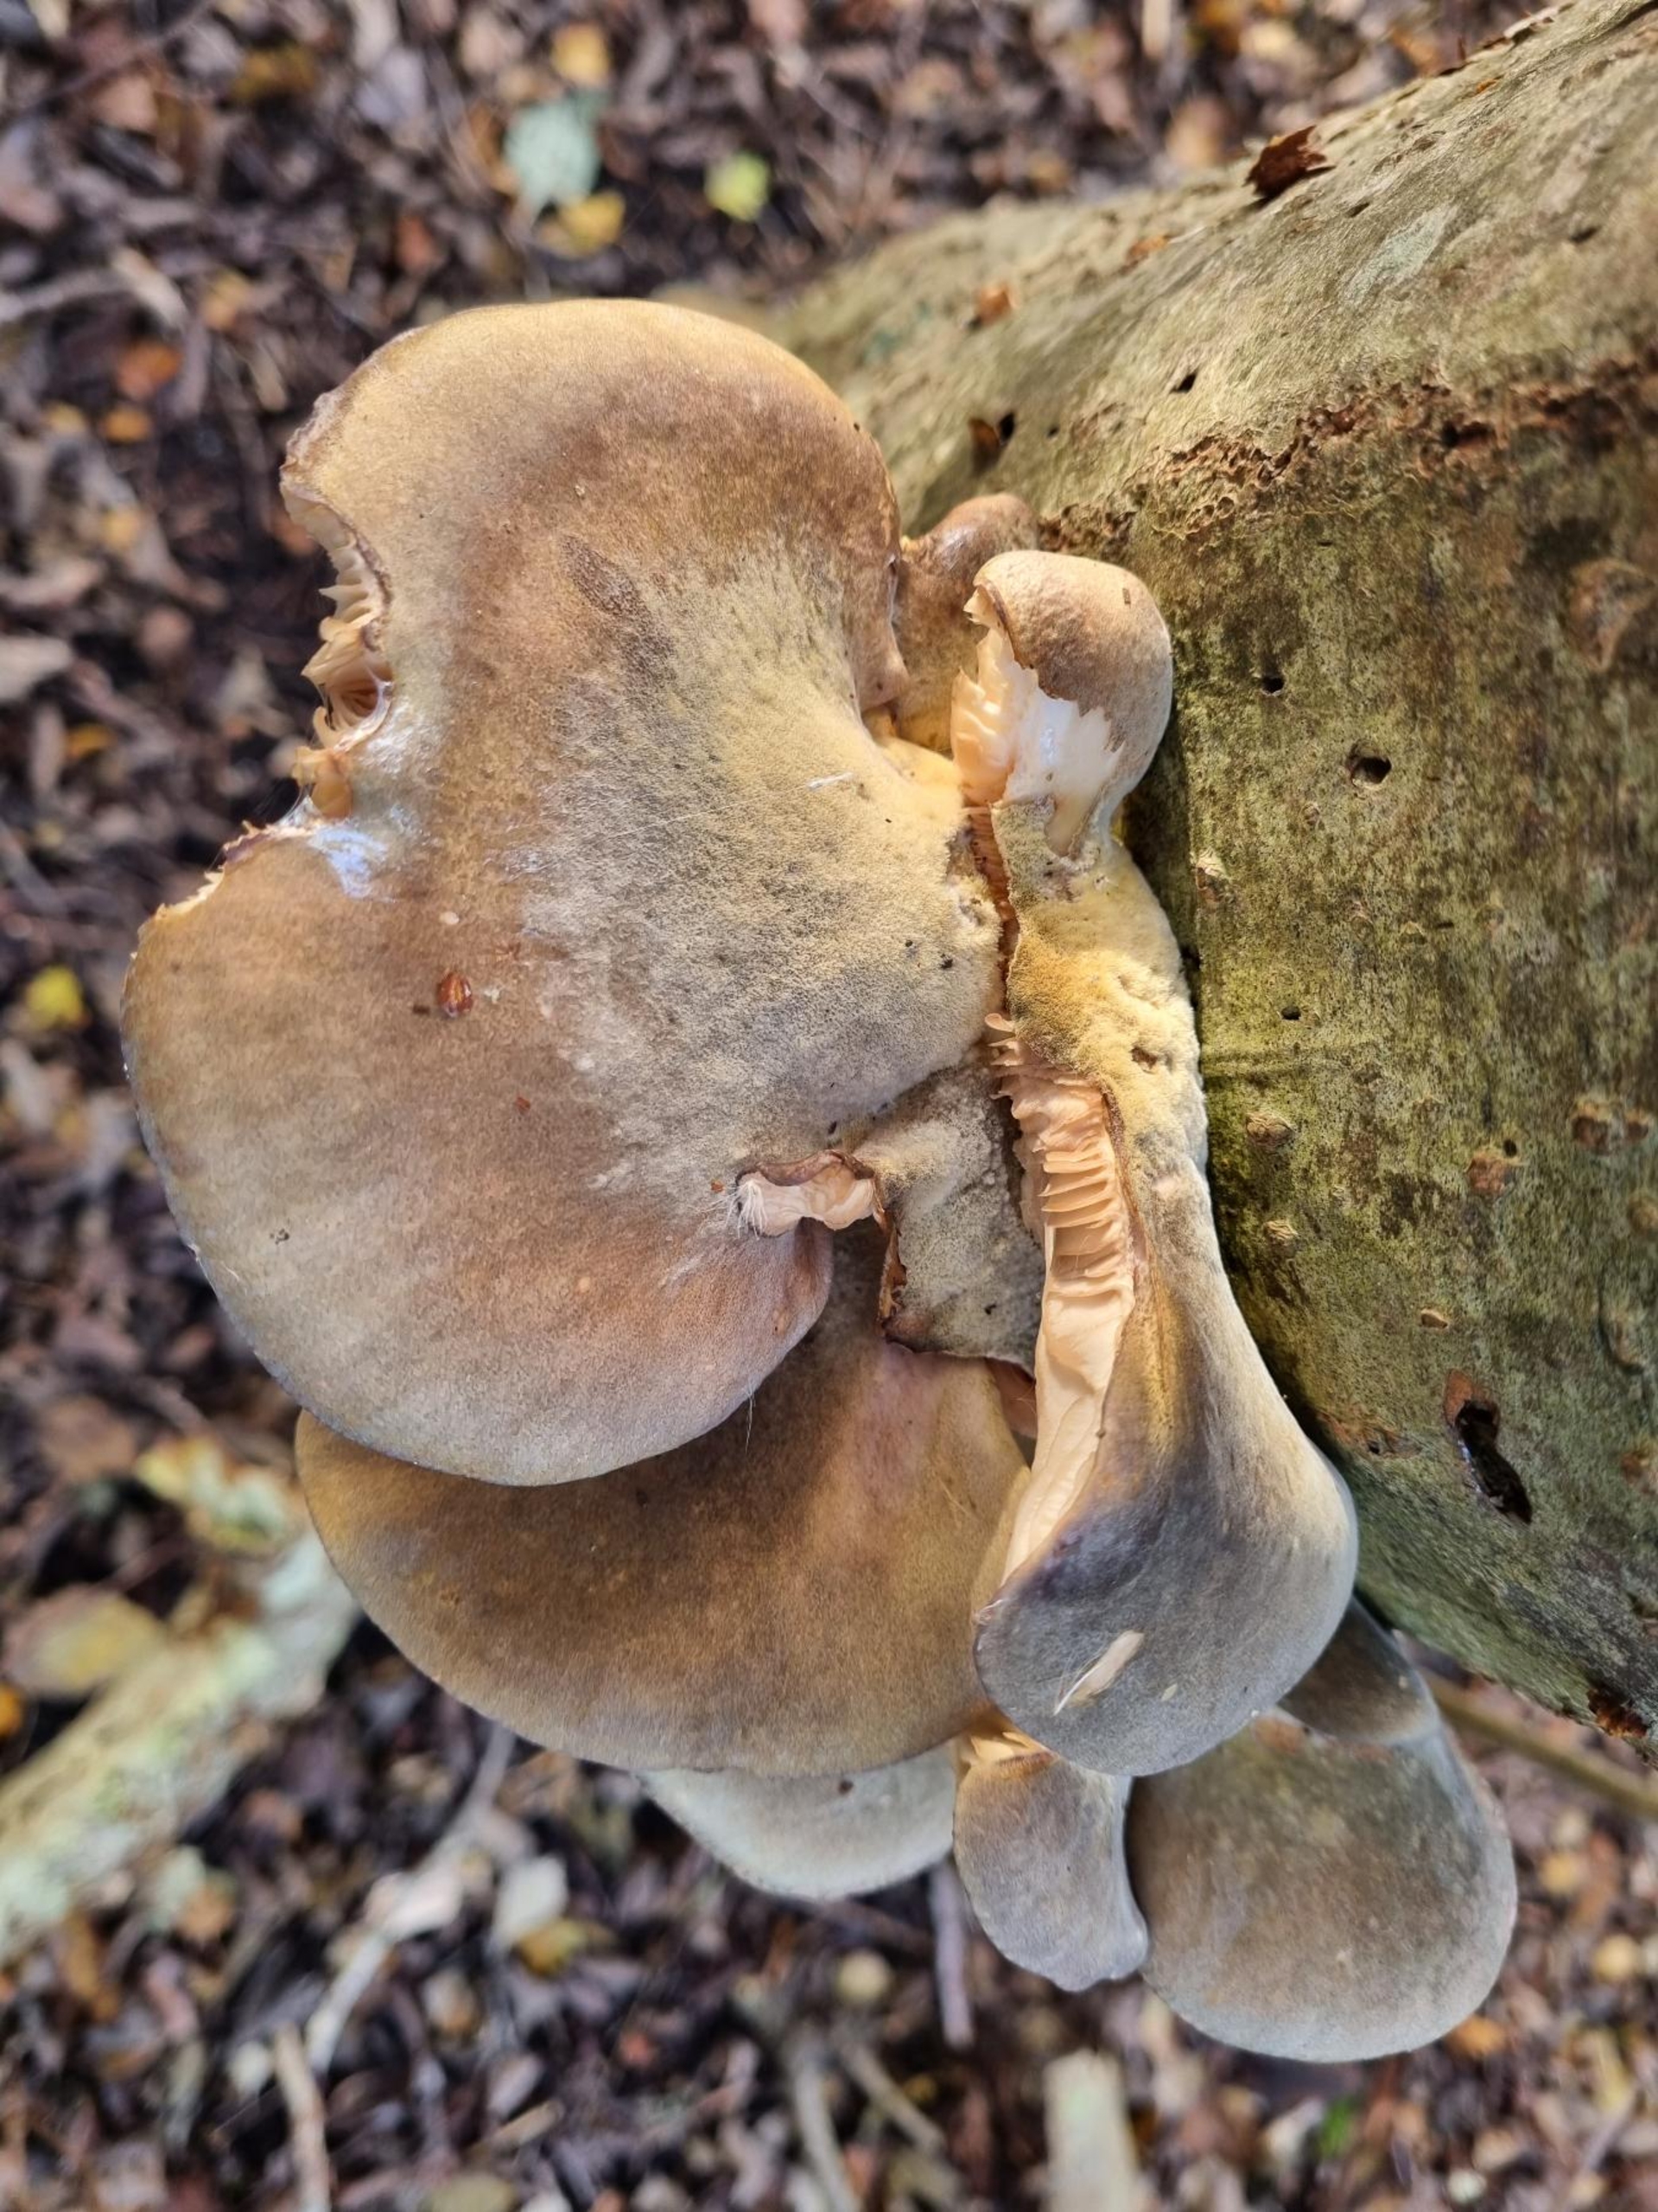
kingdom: Fungi
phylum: Basidiomycota
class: Agaricomycetes
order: Agaricales
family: Sarcomyxaceae
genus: Sarcomyxa
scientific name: Sarcomyxa serotina
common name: Gummihat
